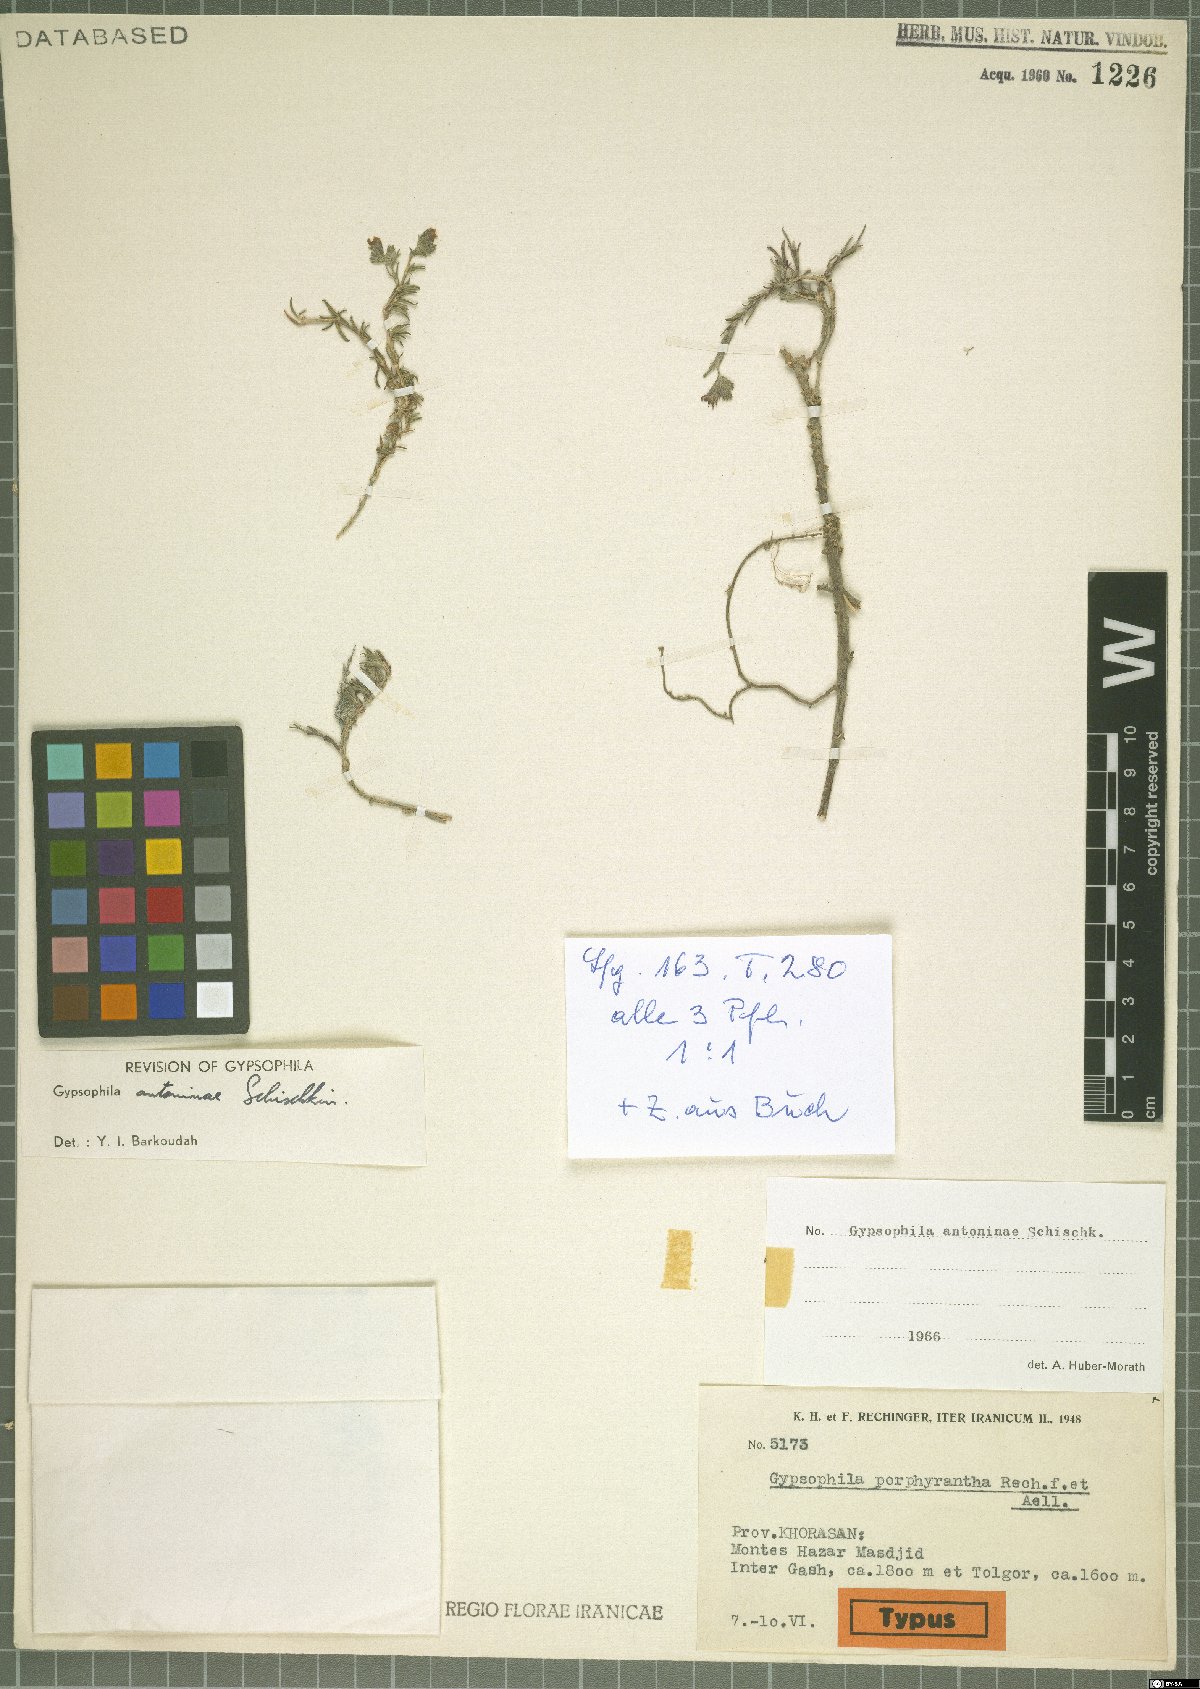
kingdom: Plantae
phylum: Tracheophyta
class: Magnoliopsida
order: Caryophyllales
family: Caryophyllaceae
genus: Heterochroa
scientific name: Heterochroa antoninae
